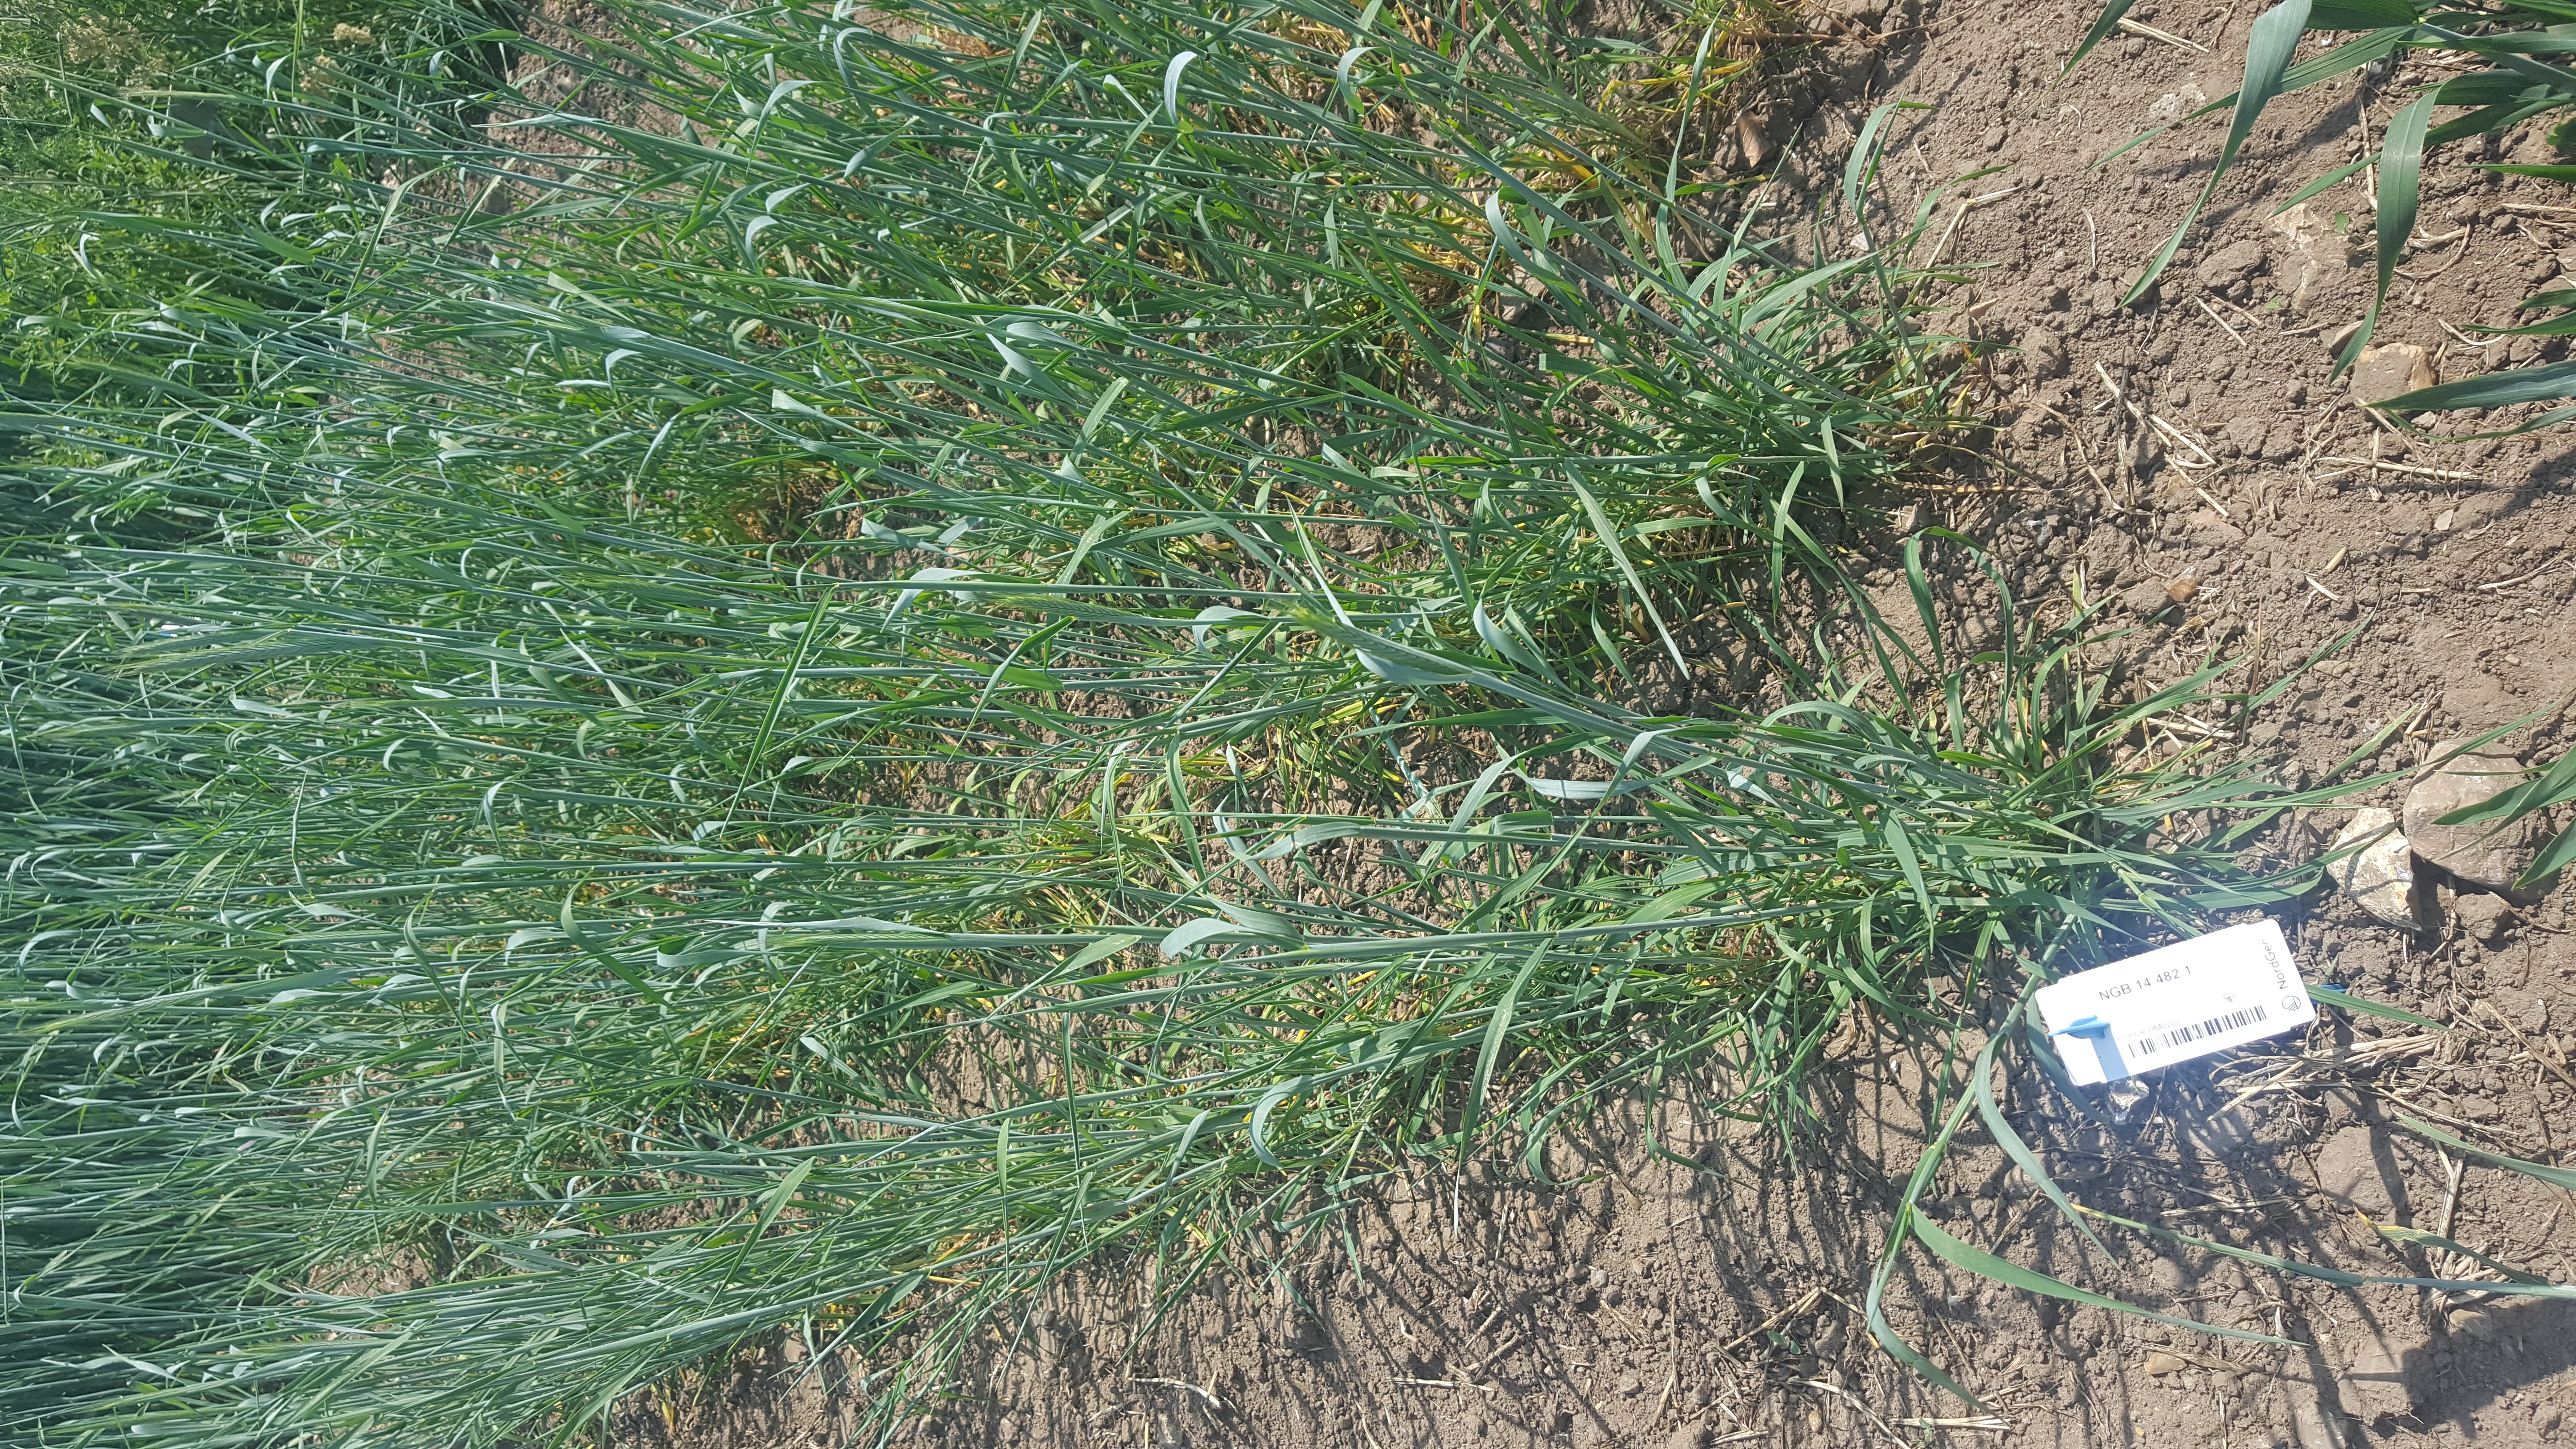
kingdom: Plantae
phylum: Tracheophyta
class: Liliopsida
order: Poales
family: Poaceae
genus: Secale
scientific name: Secale cereale
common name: Rye
